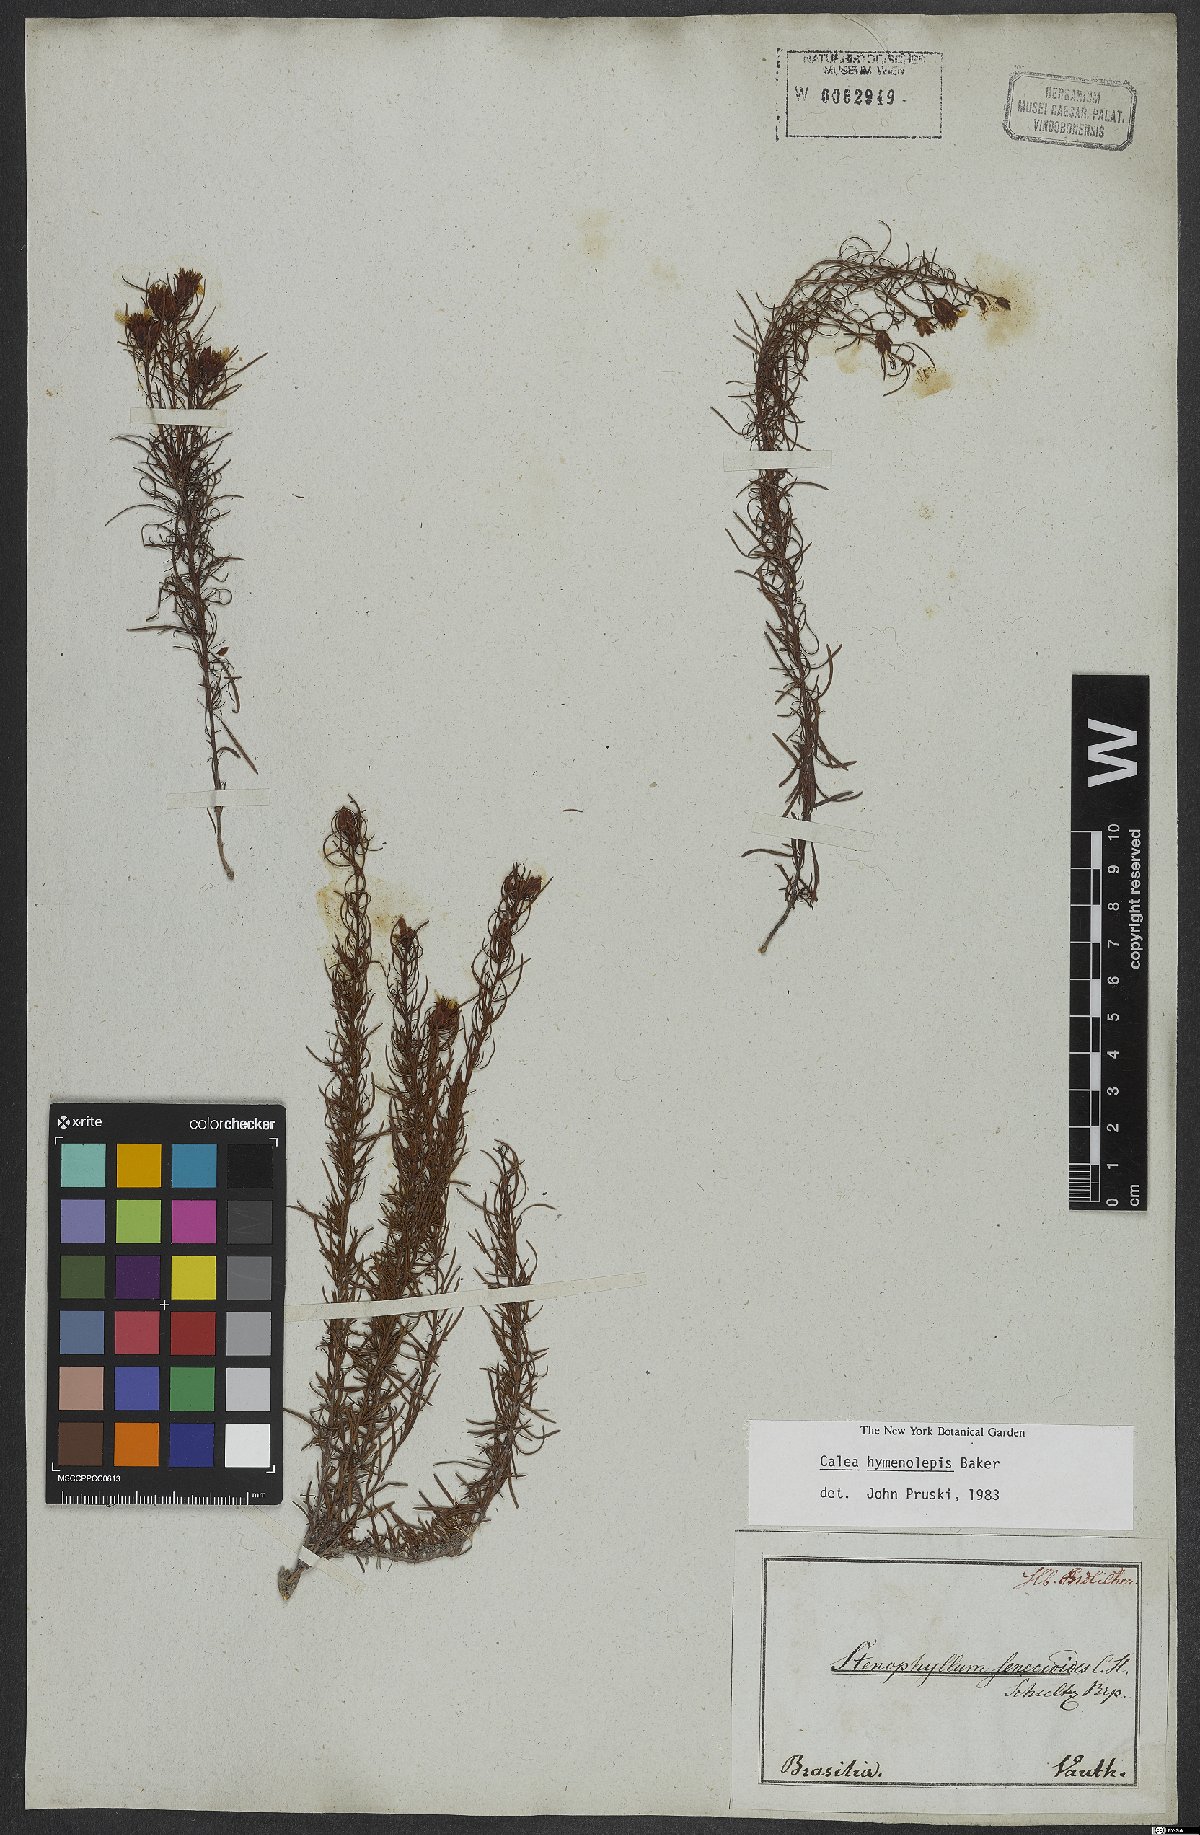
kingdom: Plantae
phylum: Tracheophyta
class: Magnoliopsida
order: Asterales
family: Asteraceae
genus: Calea
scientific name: Calea hymenolepis
